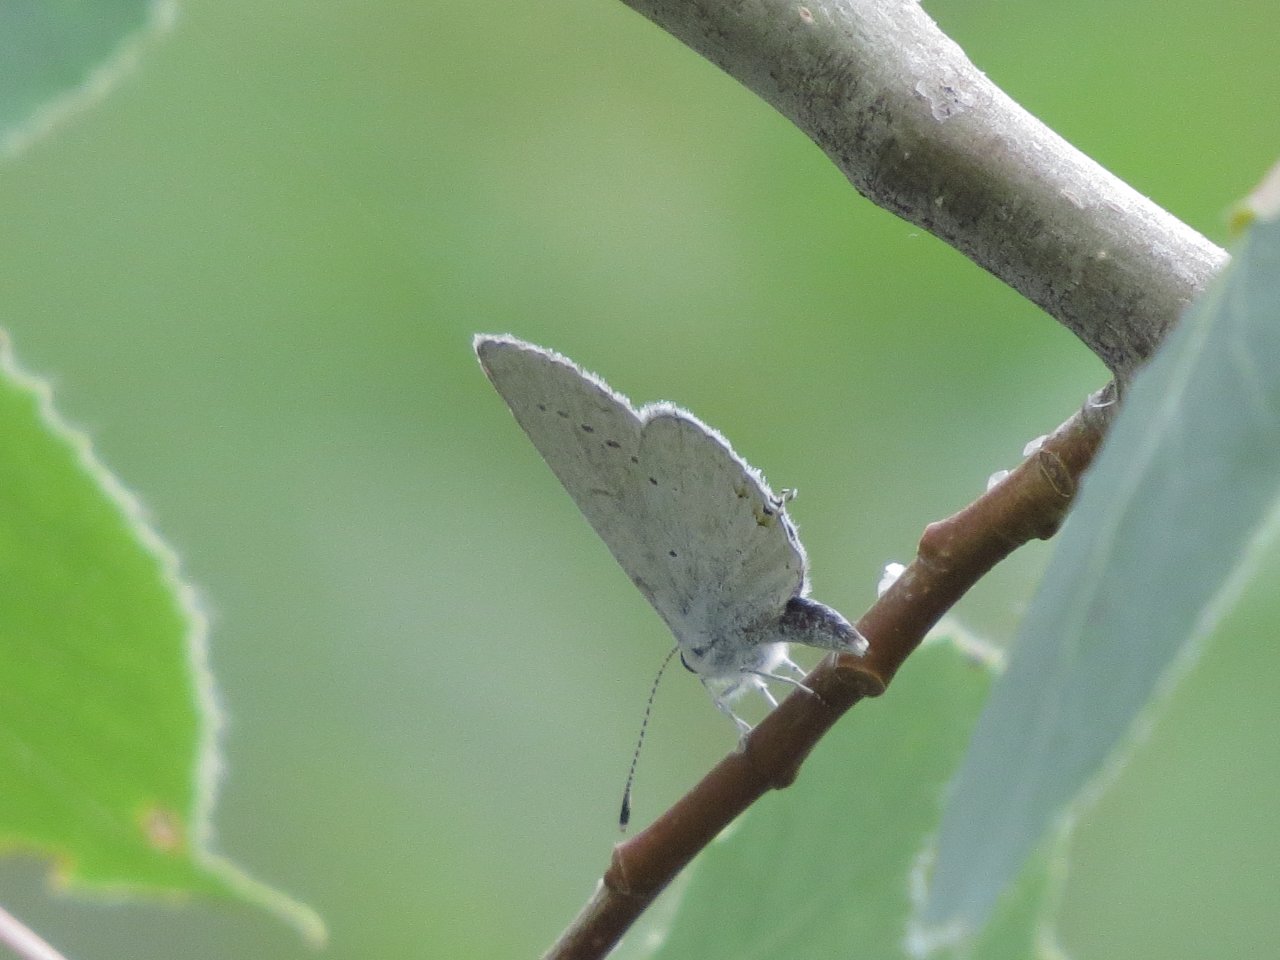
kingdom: Animalia
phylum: Arthropoda
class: Insecta
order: Lepidoptera
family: Lycaenidae
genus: Elkalyce
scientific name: Elkalyce amyntula
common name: Western Tailed-Blue
